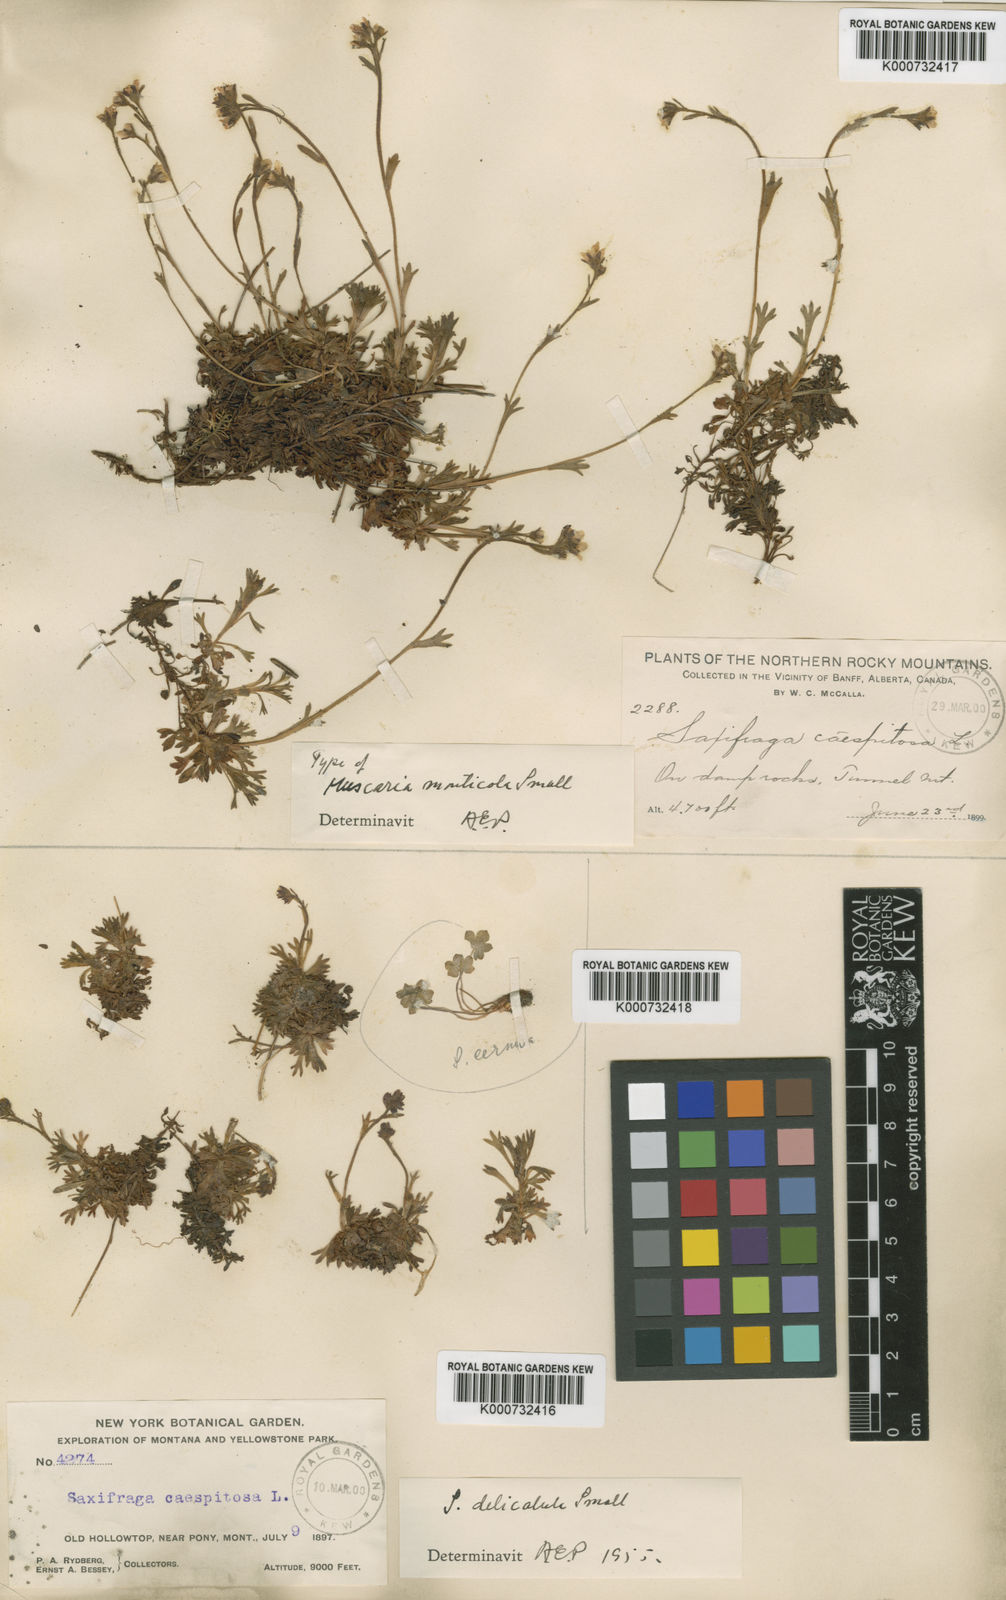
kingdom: Plantae
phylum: Tracheophyta
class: Magnoliopsida
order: Saxifragales
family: Saxifragaceae
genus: Saxifraga
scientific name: Saxifraga cespitosa
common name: Tufted saxifrage
